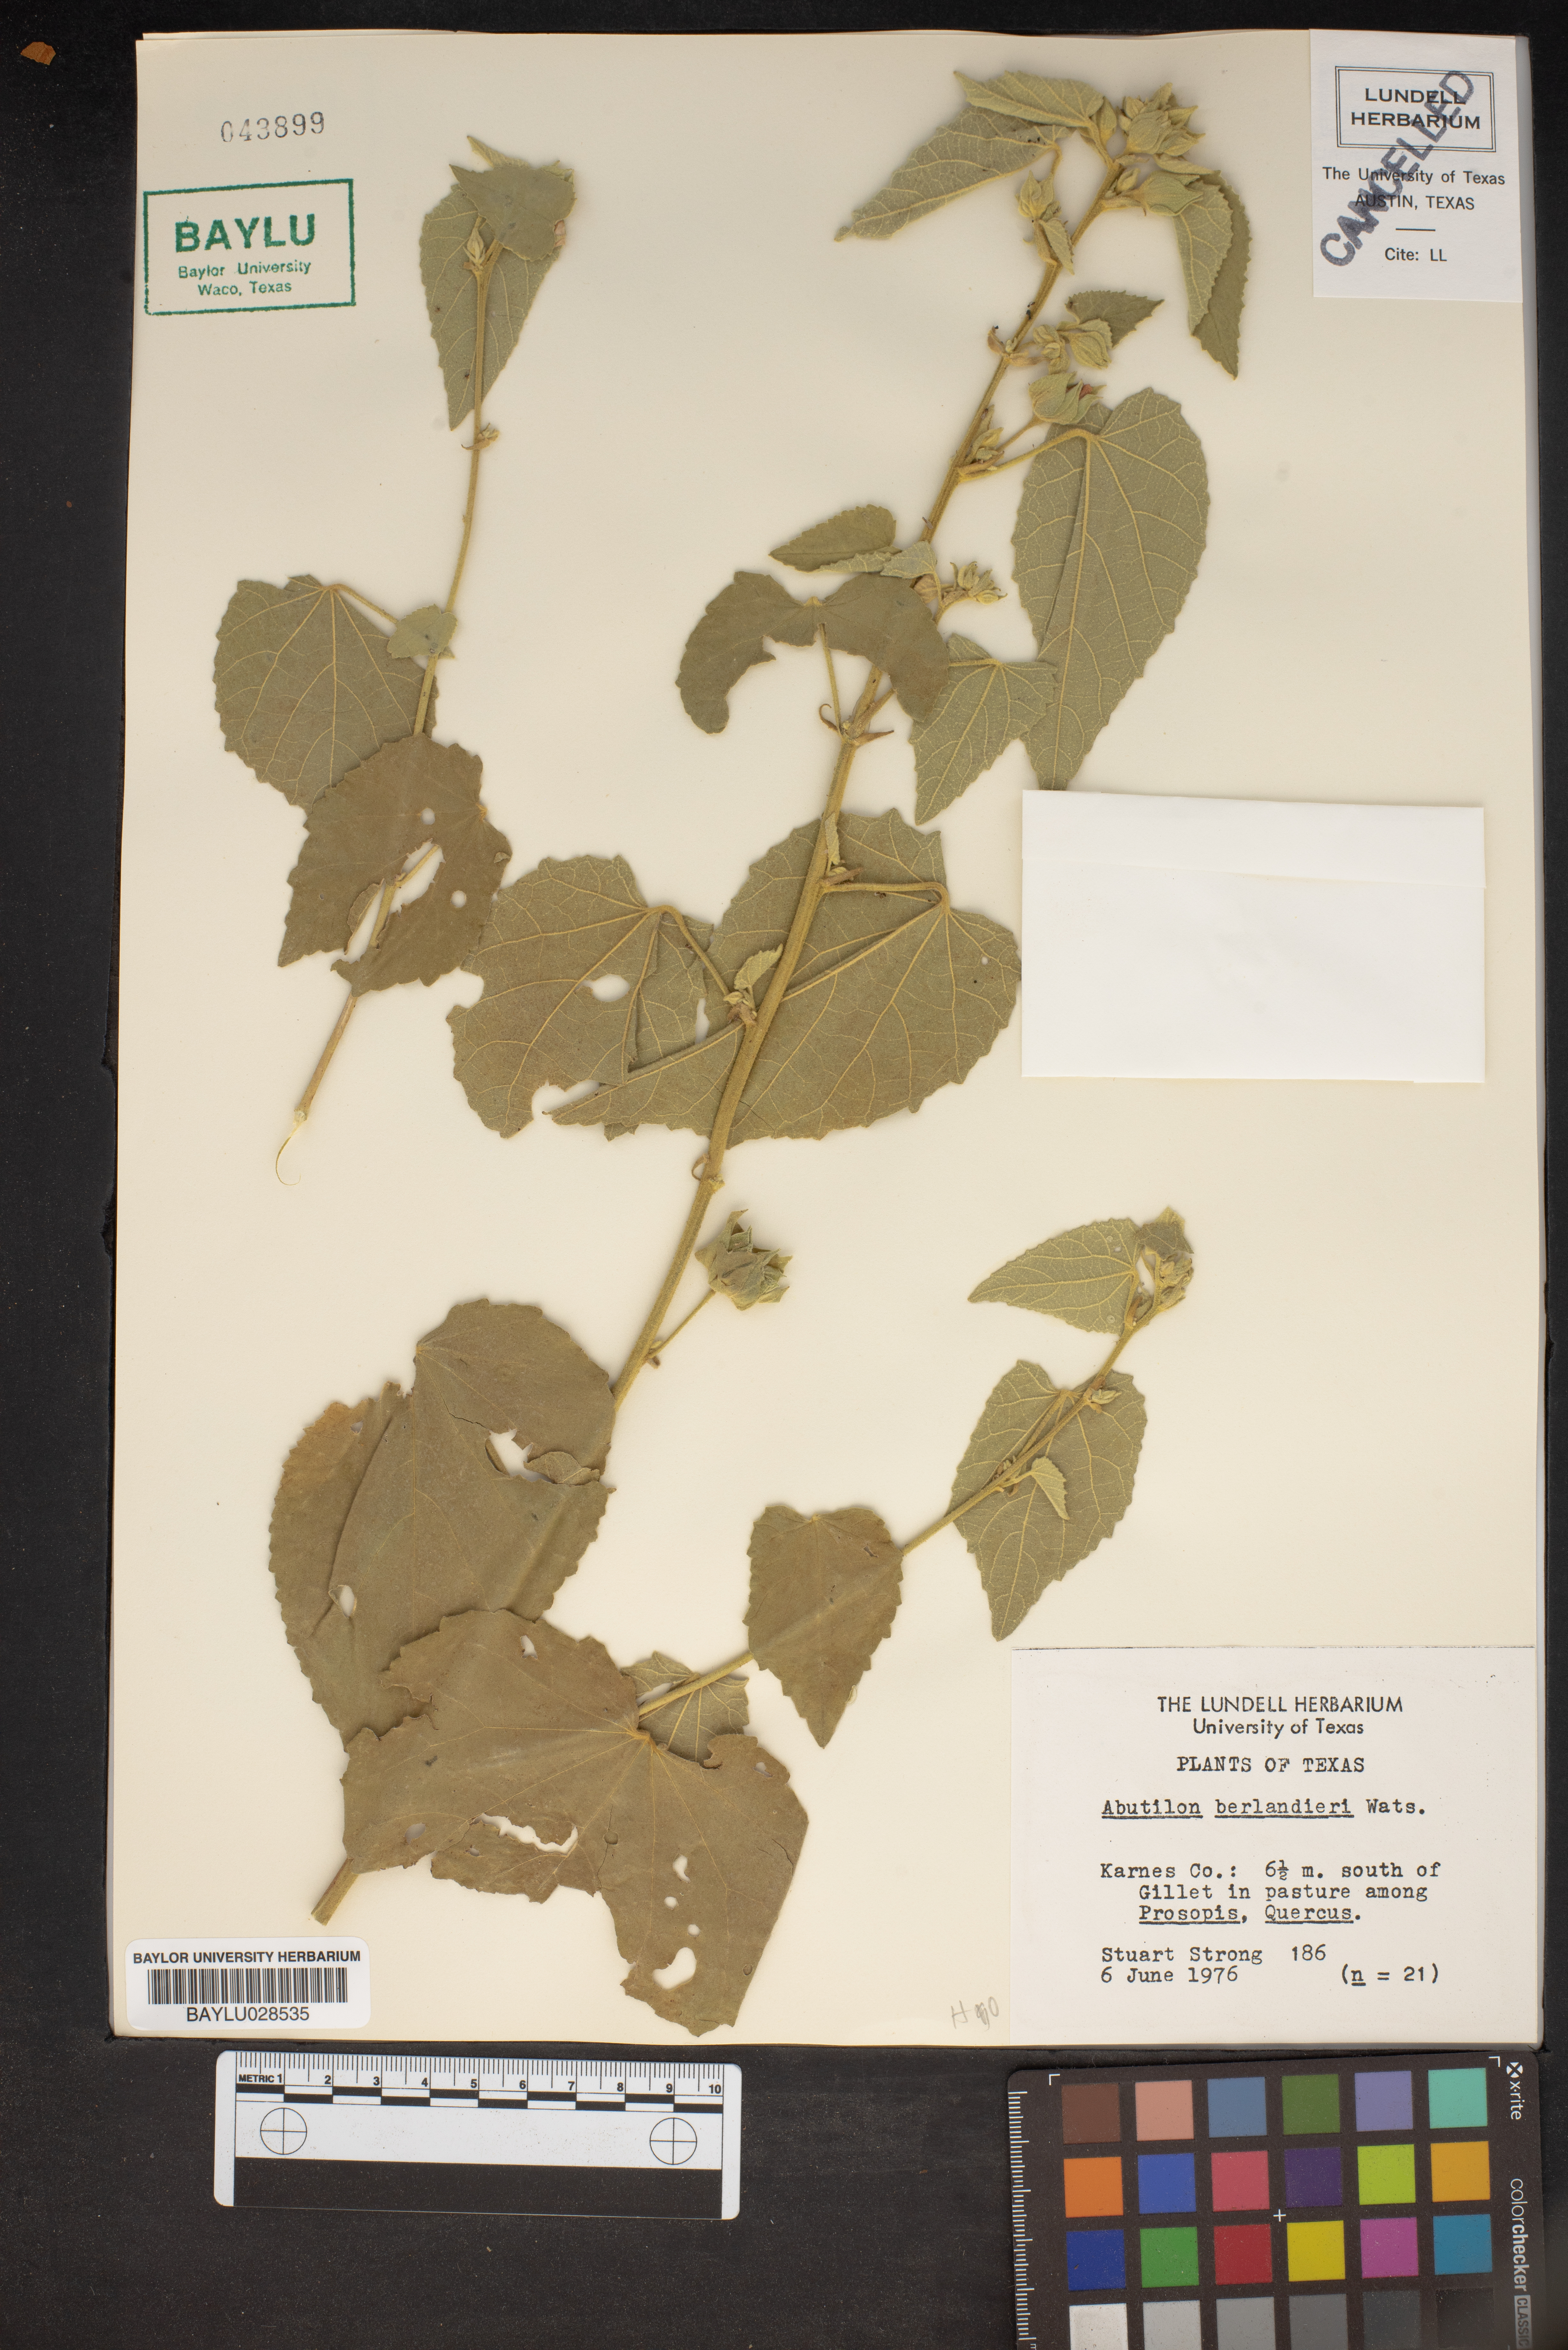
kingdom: Plantae
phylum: Tracheophyta
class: Magnoliopsida
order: Malvales
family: Malvaceae
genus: Abutilon
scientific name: Abutilon berlandieri
